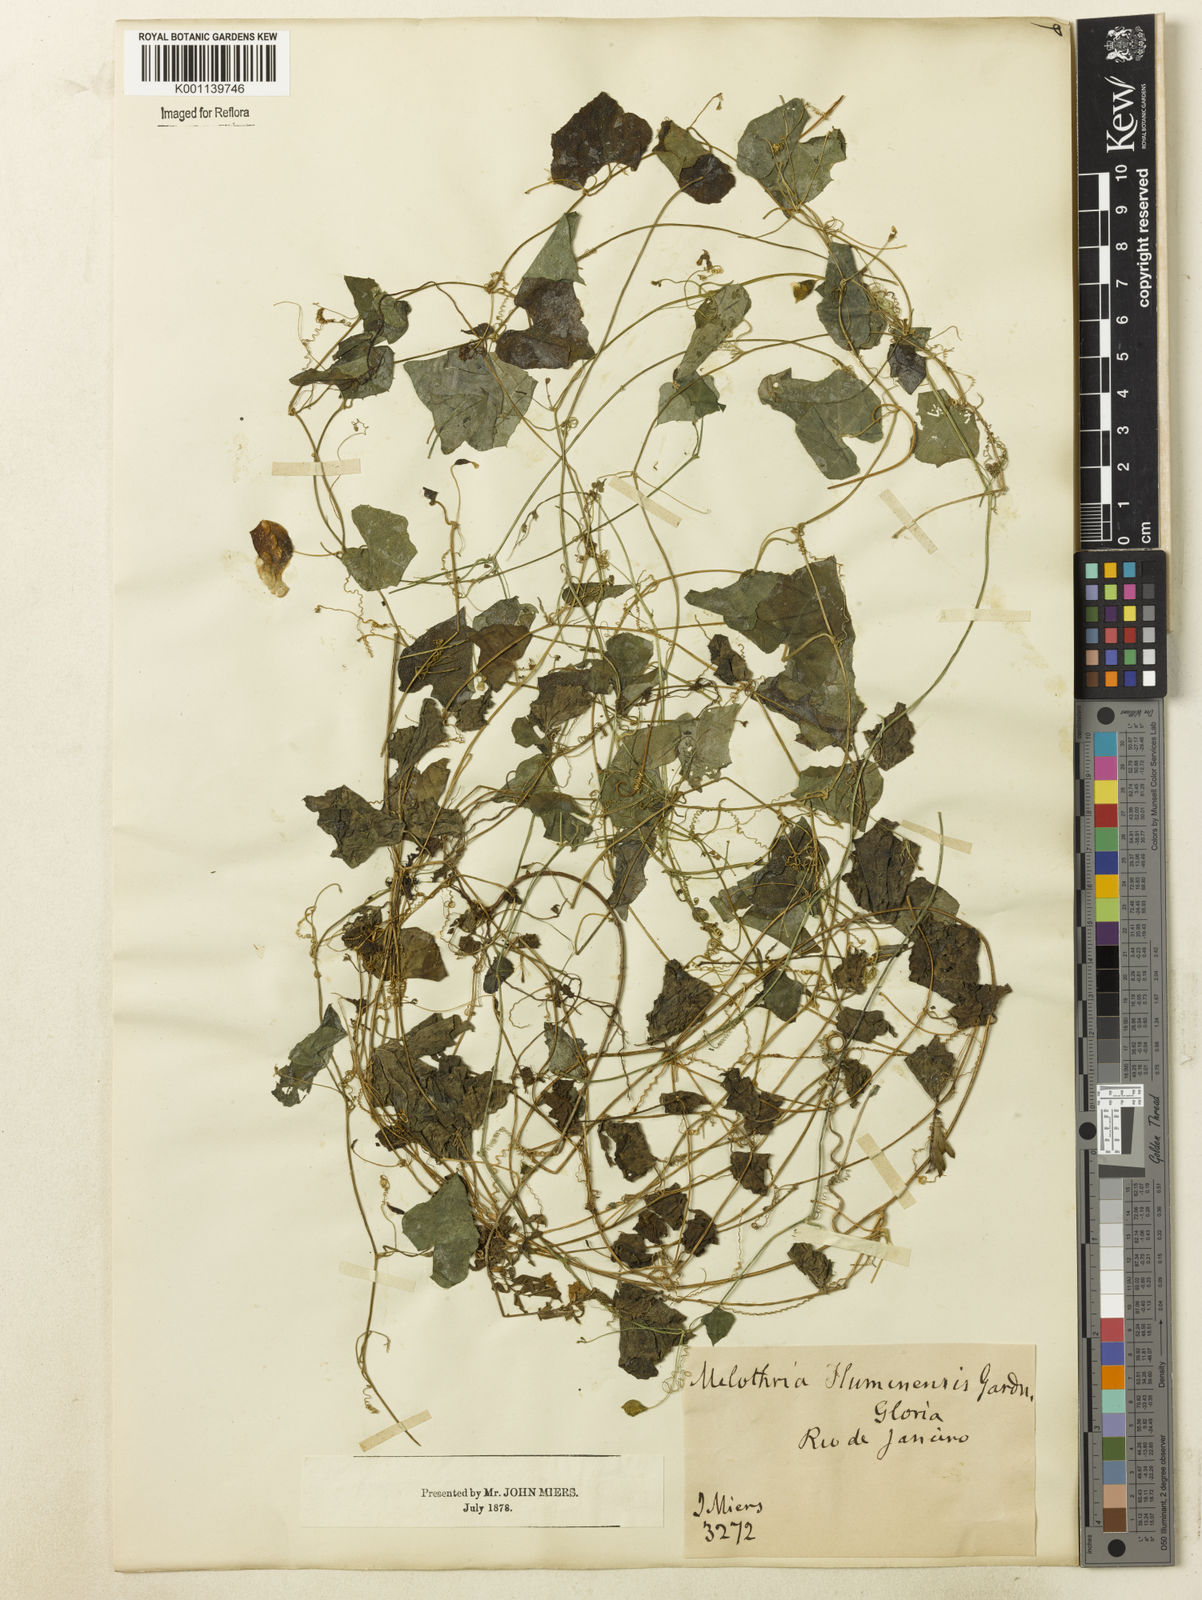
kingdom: Plantae
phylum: Tracheophyta
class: Magnoliopsida
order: Cucurbitales
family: Cucurbitaceae
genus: Melothria
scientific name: Melothria pendula
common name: Creeping-cucumber
